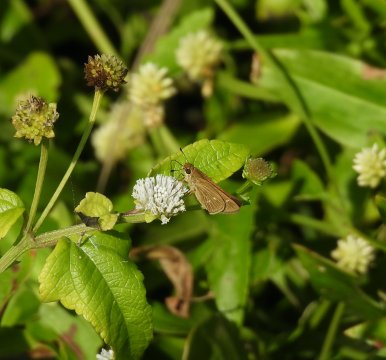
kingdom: Animalia
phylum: Arthropoda
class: Insecta
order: Lepidoptera
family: Hesperiidae
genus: Morys
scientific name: Morys valerius
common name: Valda Skipper
